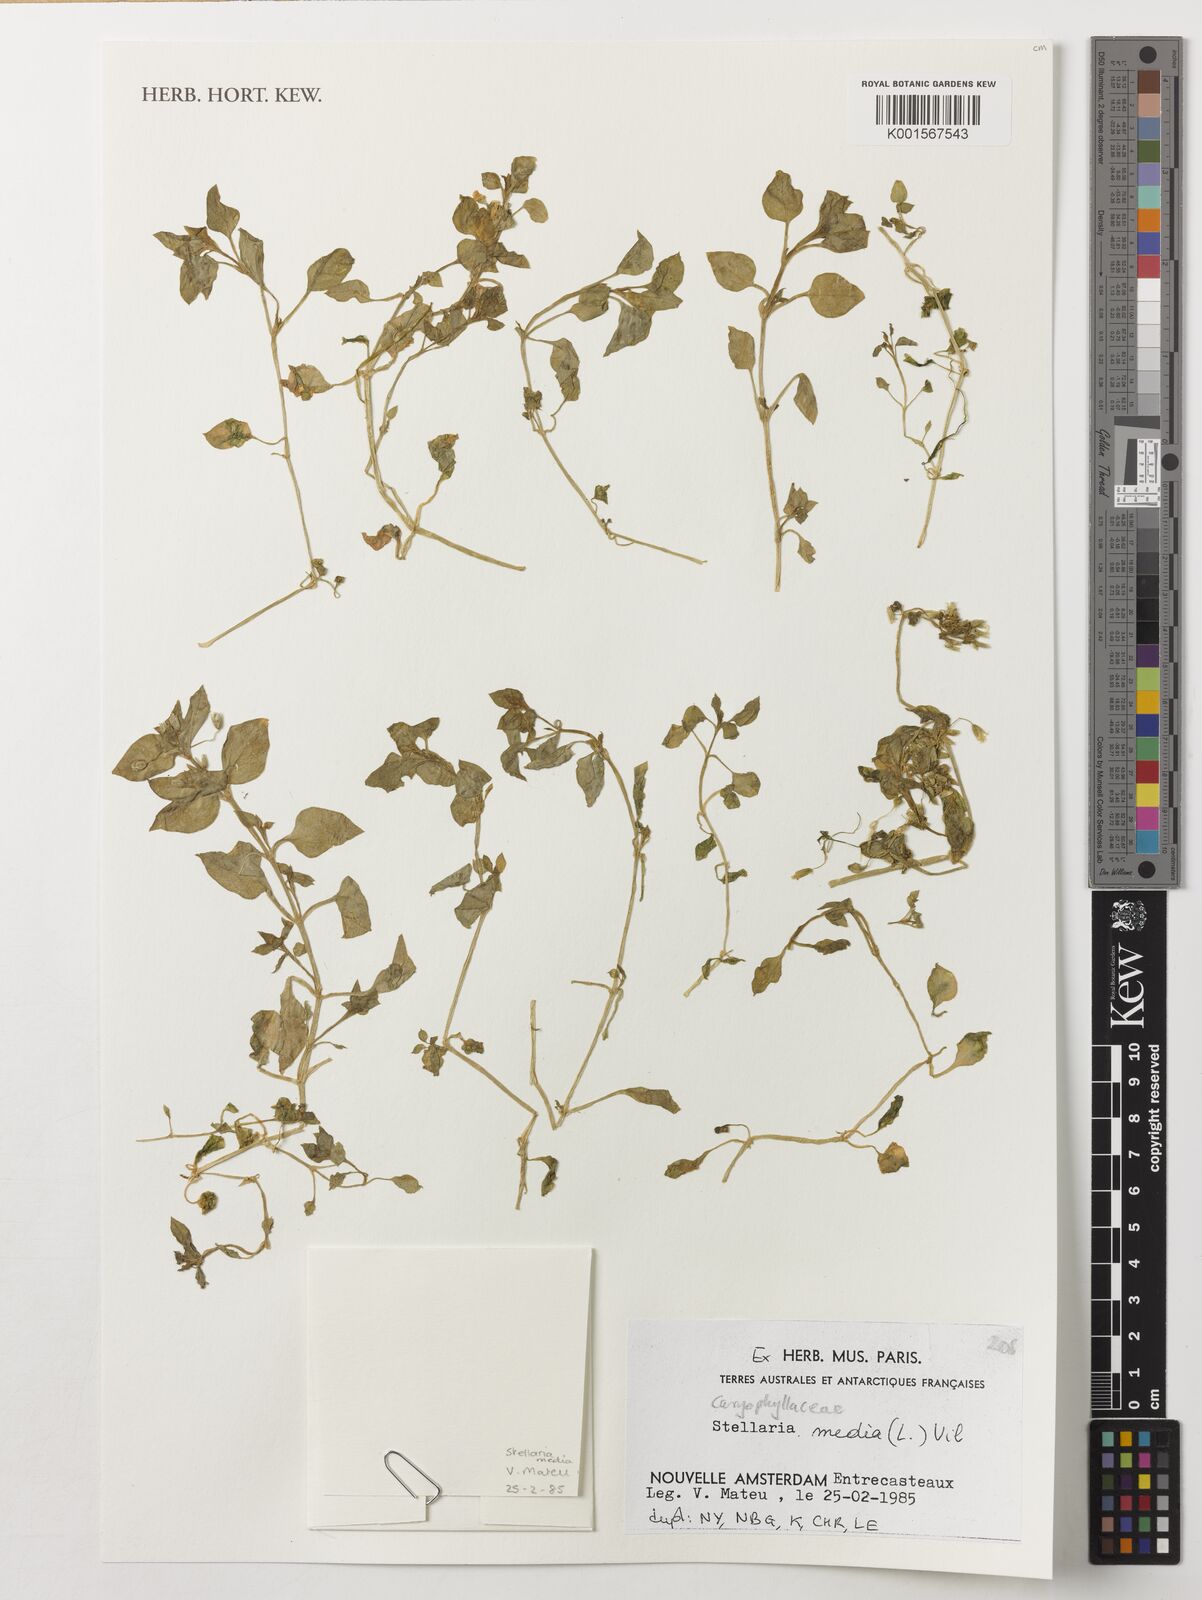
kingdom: Plantae
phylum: Tracheophyta
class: Magnoliopsida
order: Caryophyllales
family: Caryophyllaceae
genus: Stellaria
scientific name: Stellaria media
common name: Common chickweed
